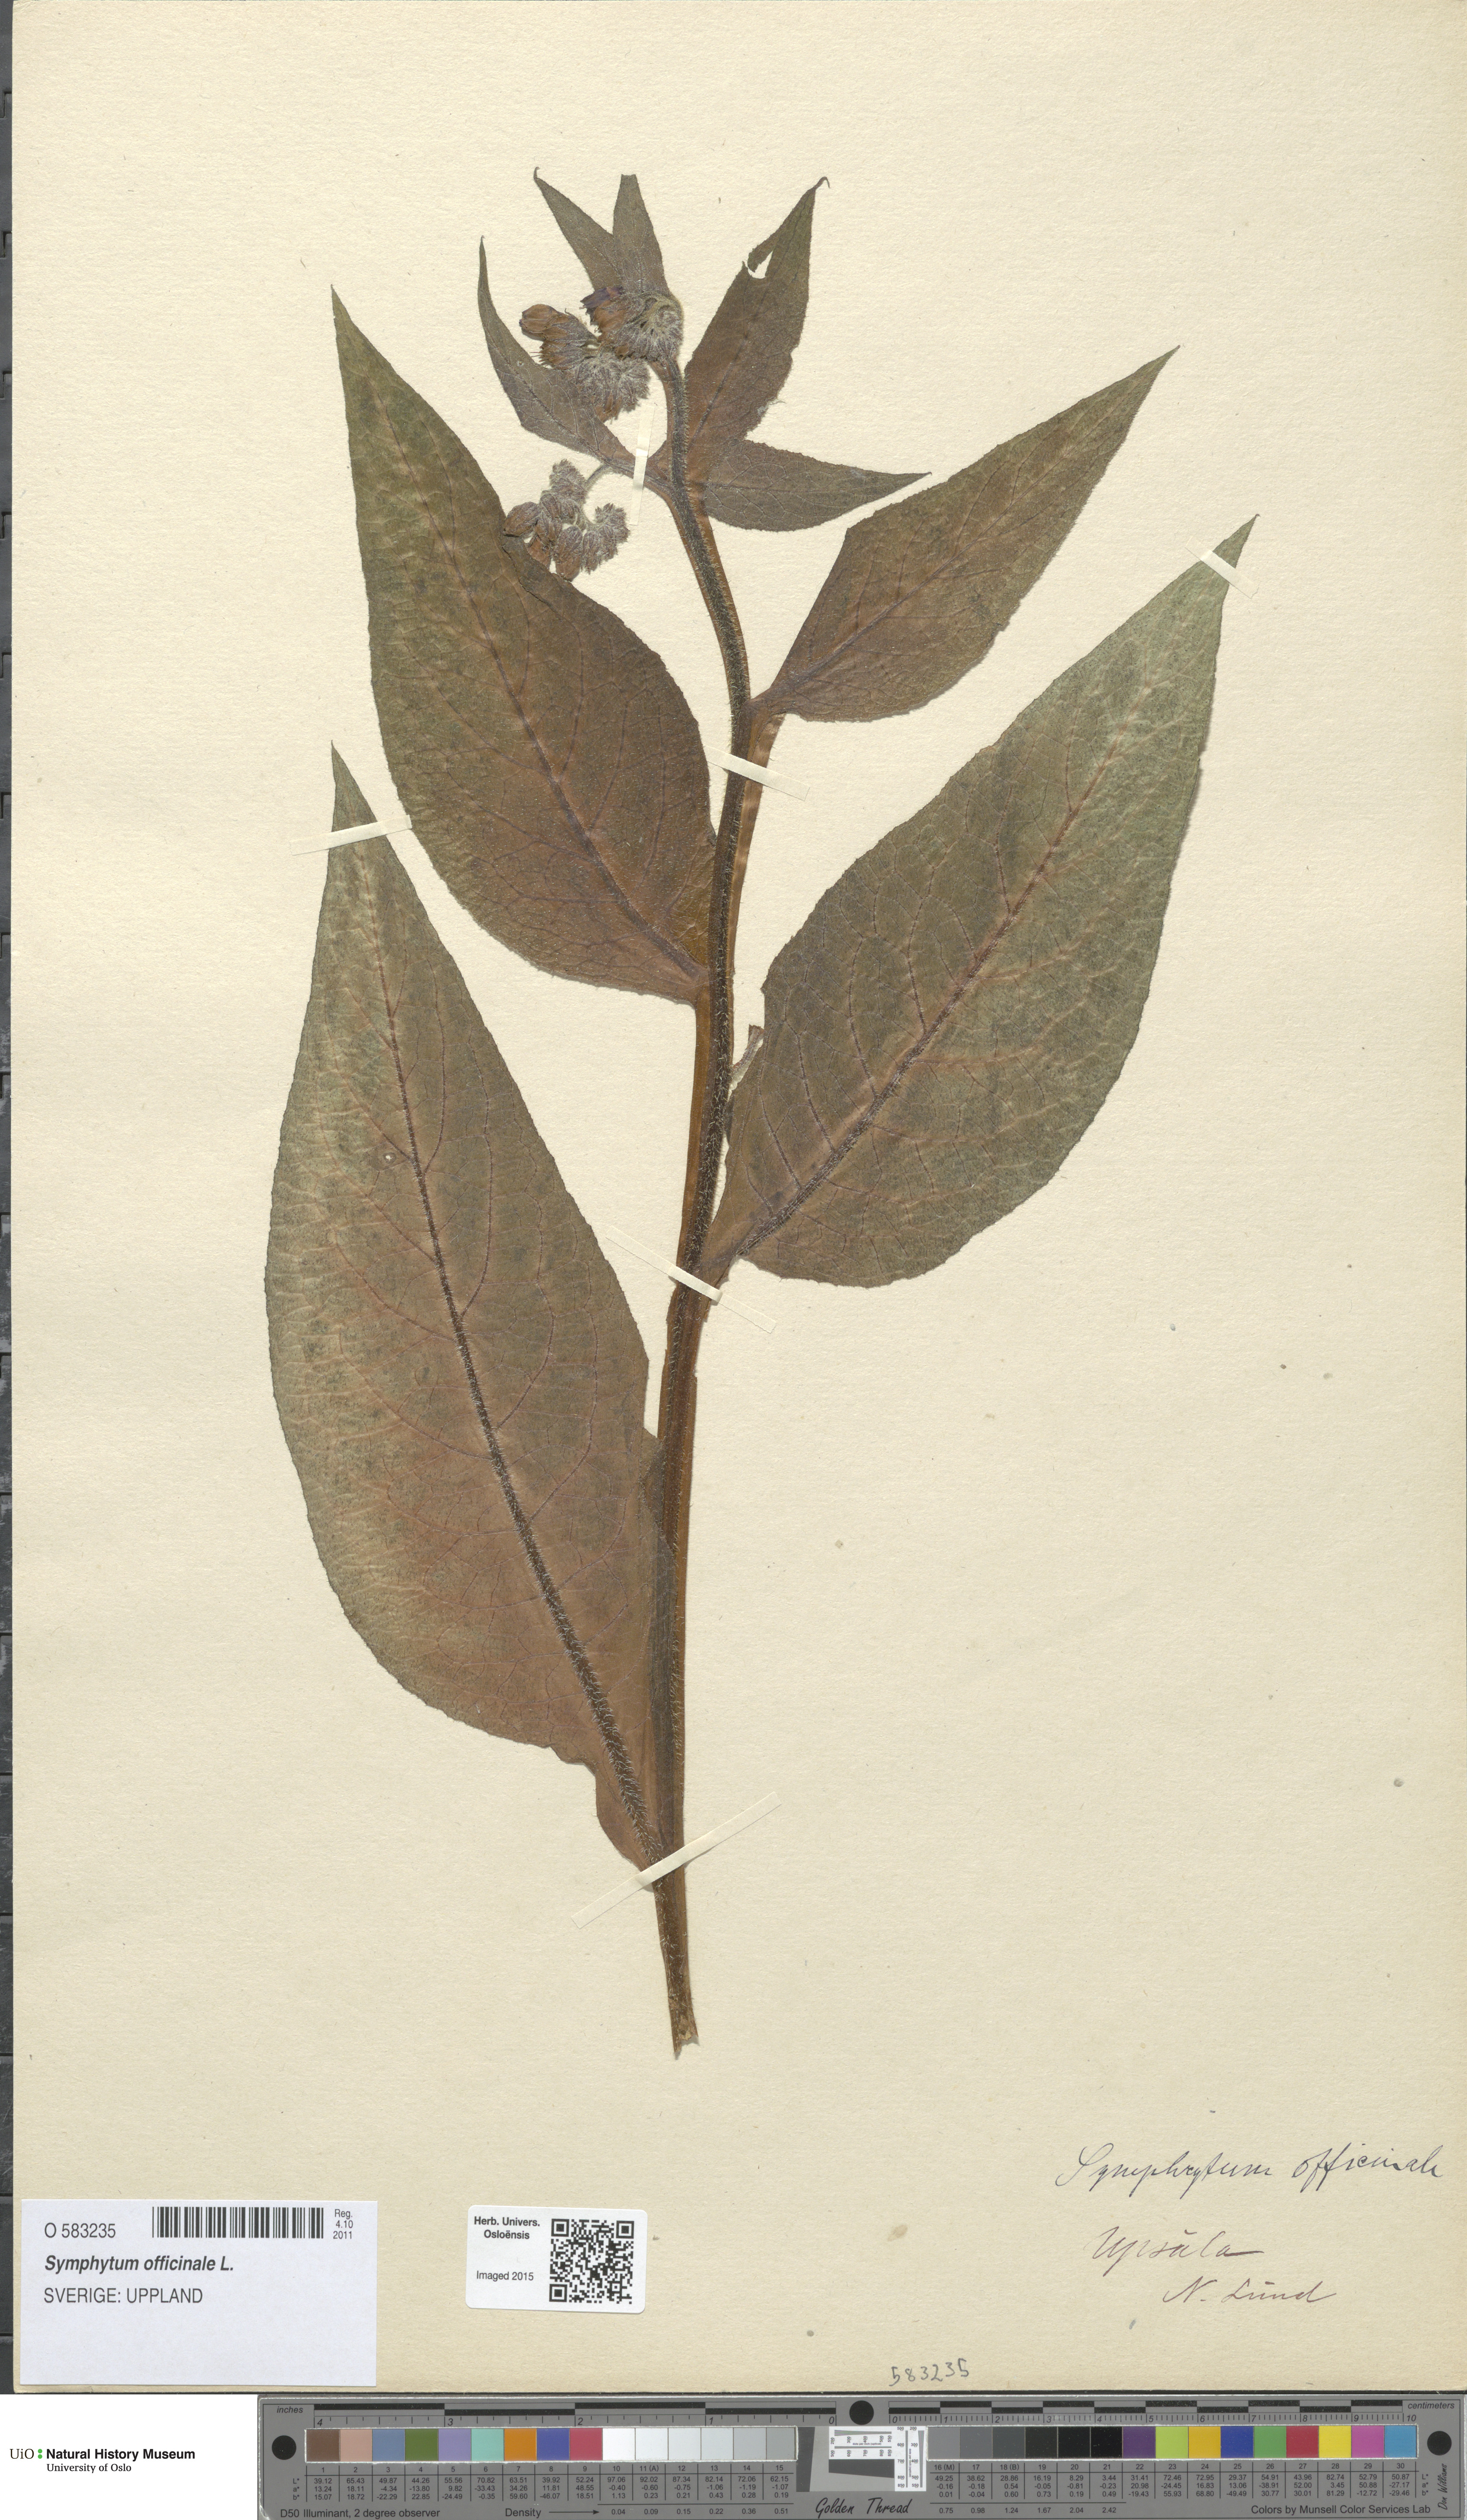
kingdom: Plantae
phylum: Tracheophyta
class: Magnoliopsida
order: Boraginales
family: Boraginaceae
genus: Symphytum
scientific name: Symphytum officinale
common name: Common comfrey
